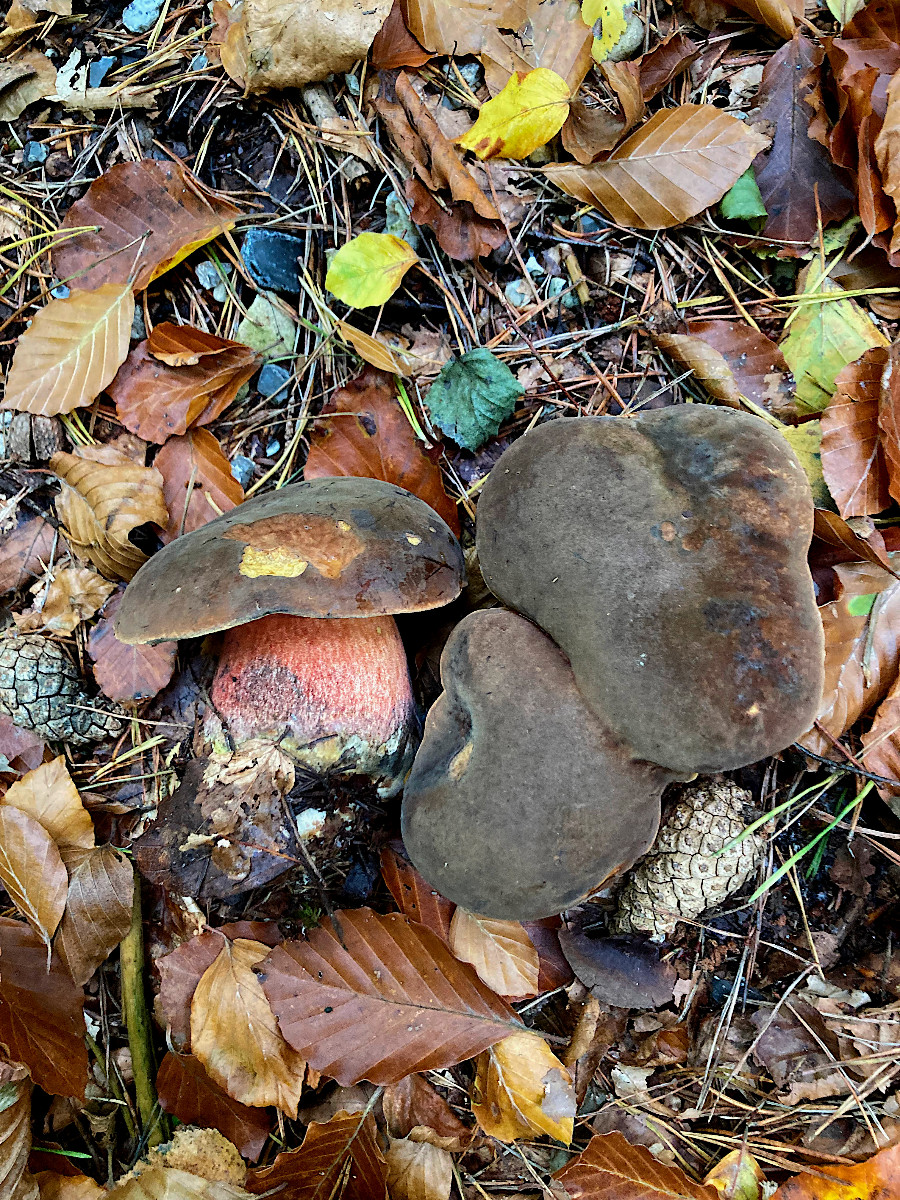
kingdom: Fungi
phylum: Basidiomycota
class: Agaricomycetes
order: Boletales
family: Boletaceae
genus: Neoboletus
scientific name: Neoboletus erythropus
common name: punktstokket indigorørhat
